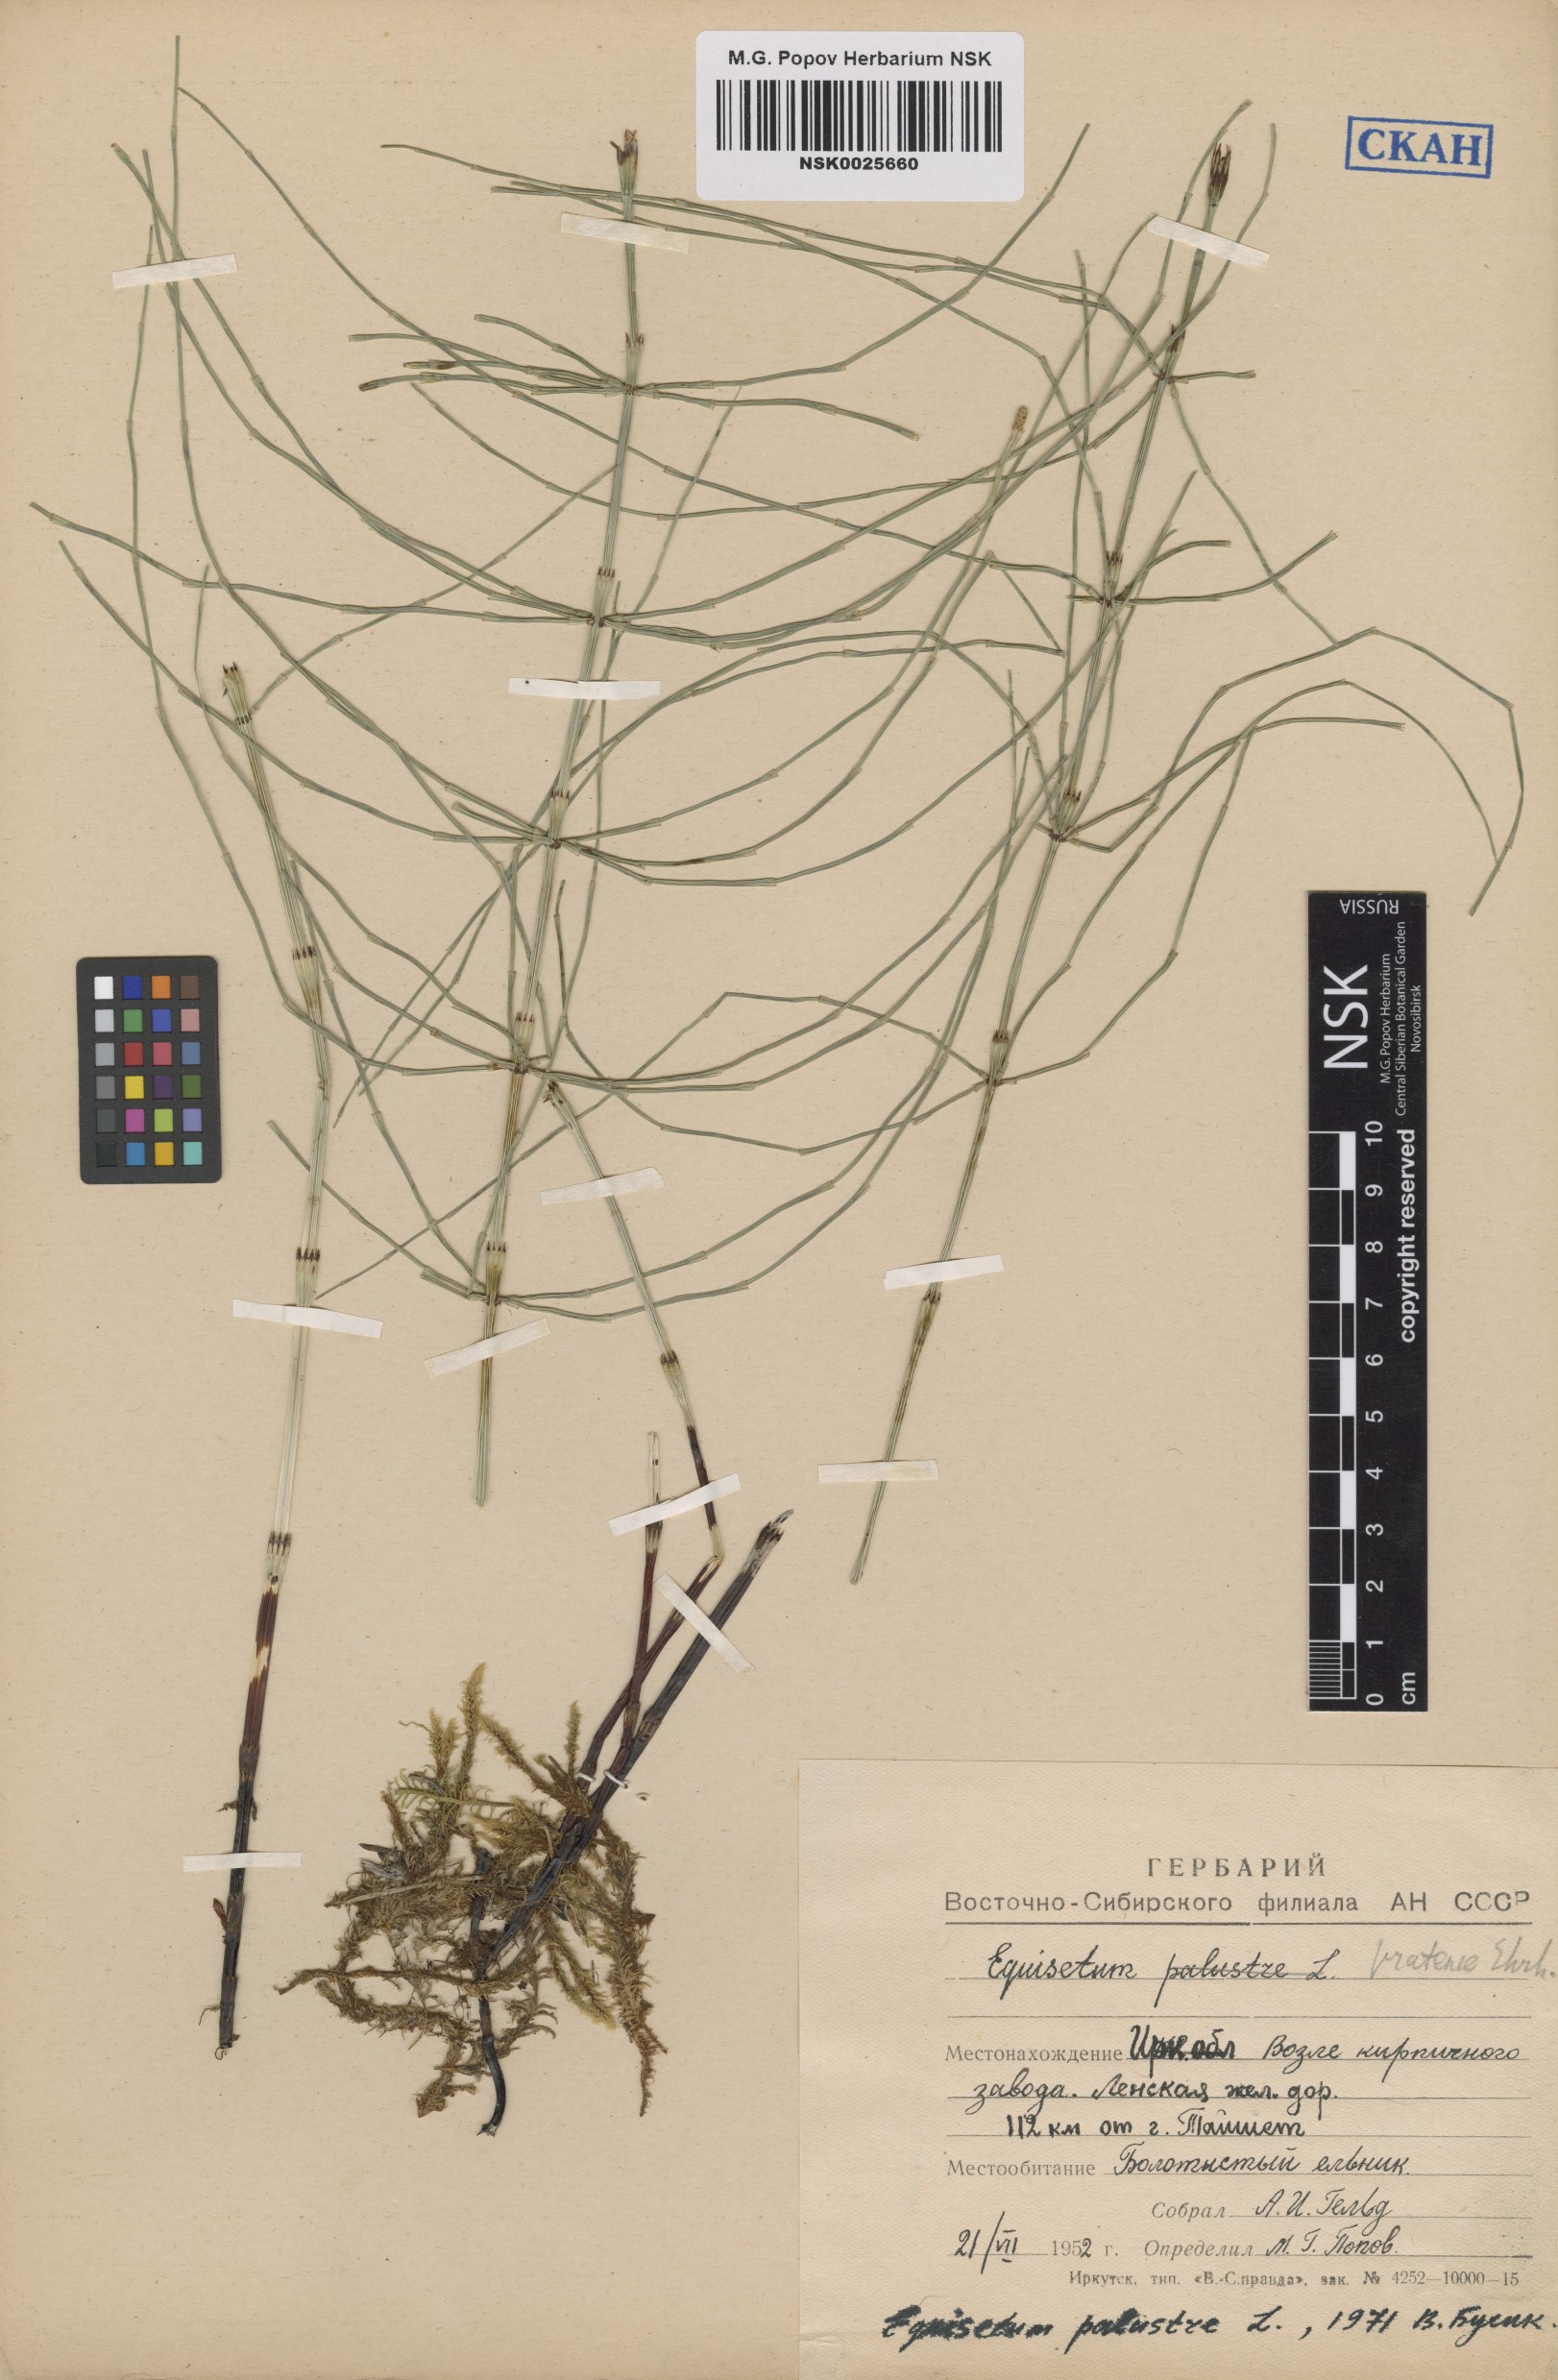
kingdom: Plantae
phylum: Tracheophyta
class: Polypodiopsida
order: Equisetales
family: Equisetaceae
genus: Equisetum
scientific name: Equisetum palustre
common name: Marsh horsetail
